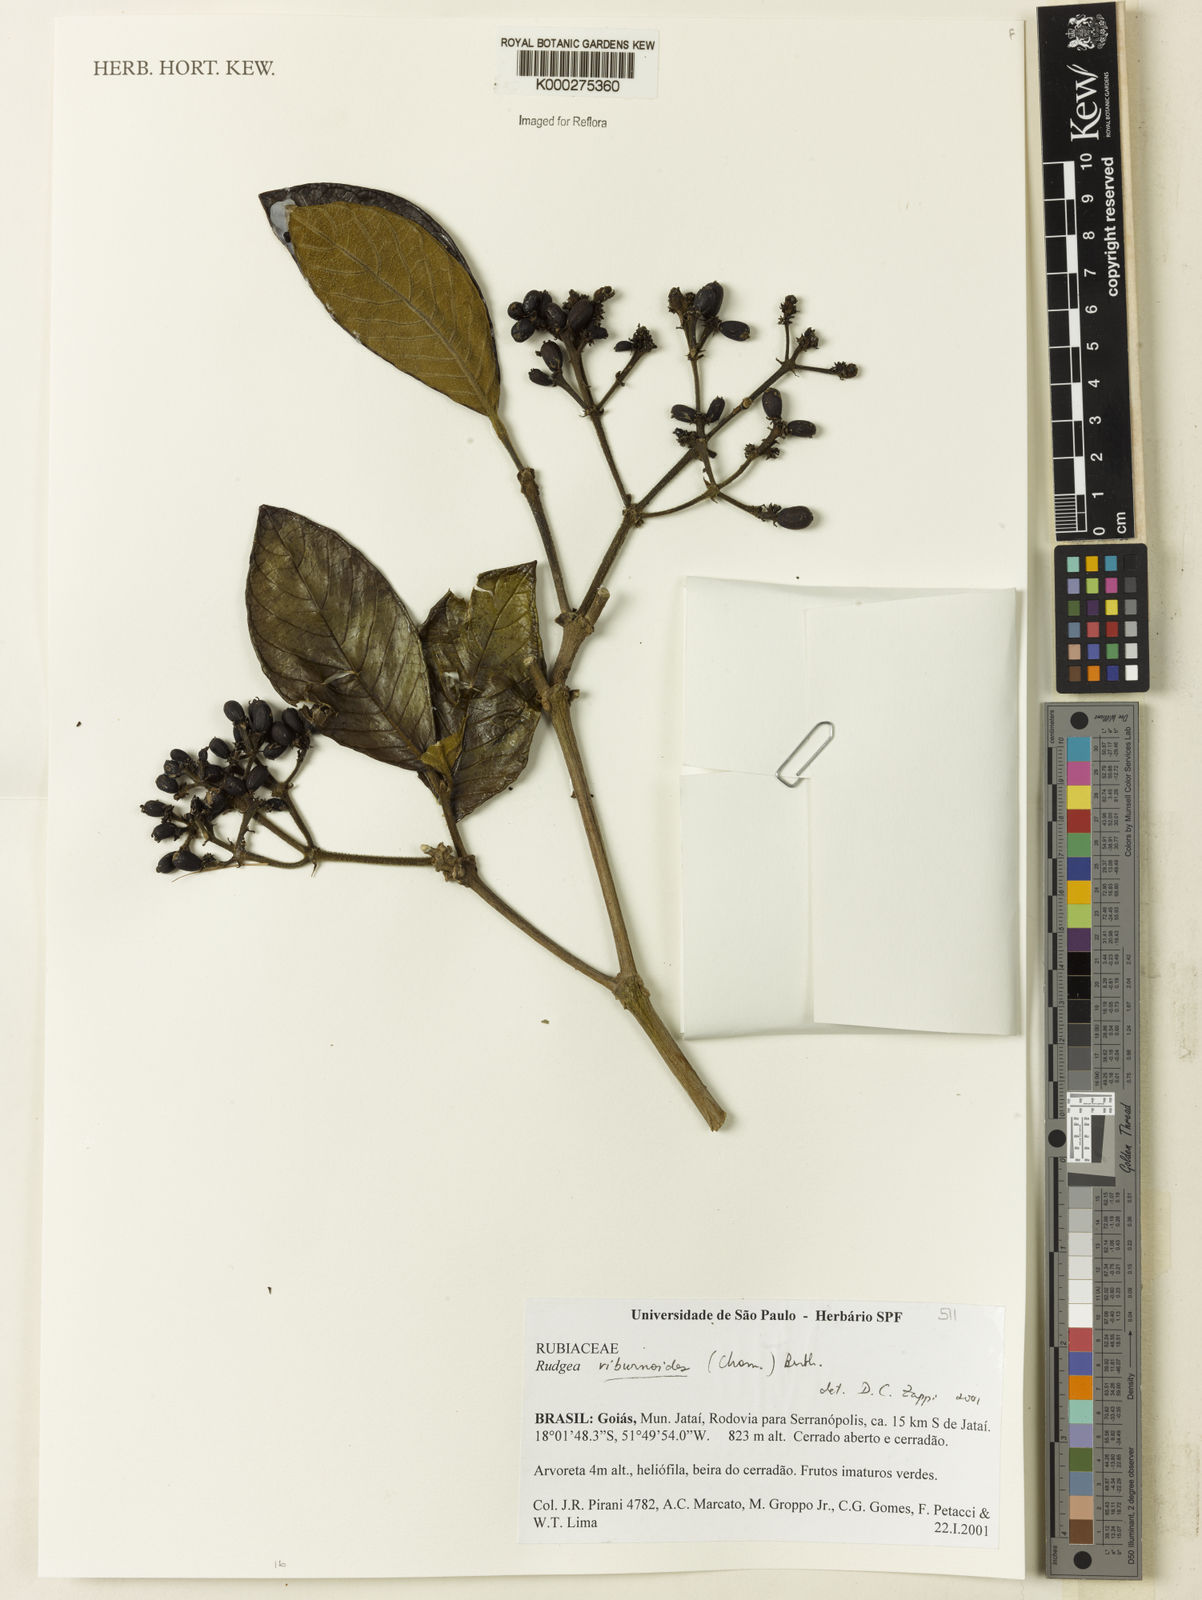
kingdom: Plantae
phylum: Tracheophyta
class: Magnoliopsida
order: Gentianales
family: Rubiaceae
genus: Rudgea
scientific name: Rudgea viburnoides
